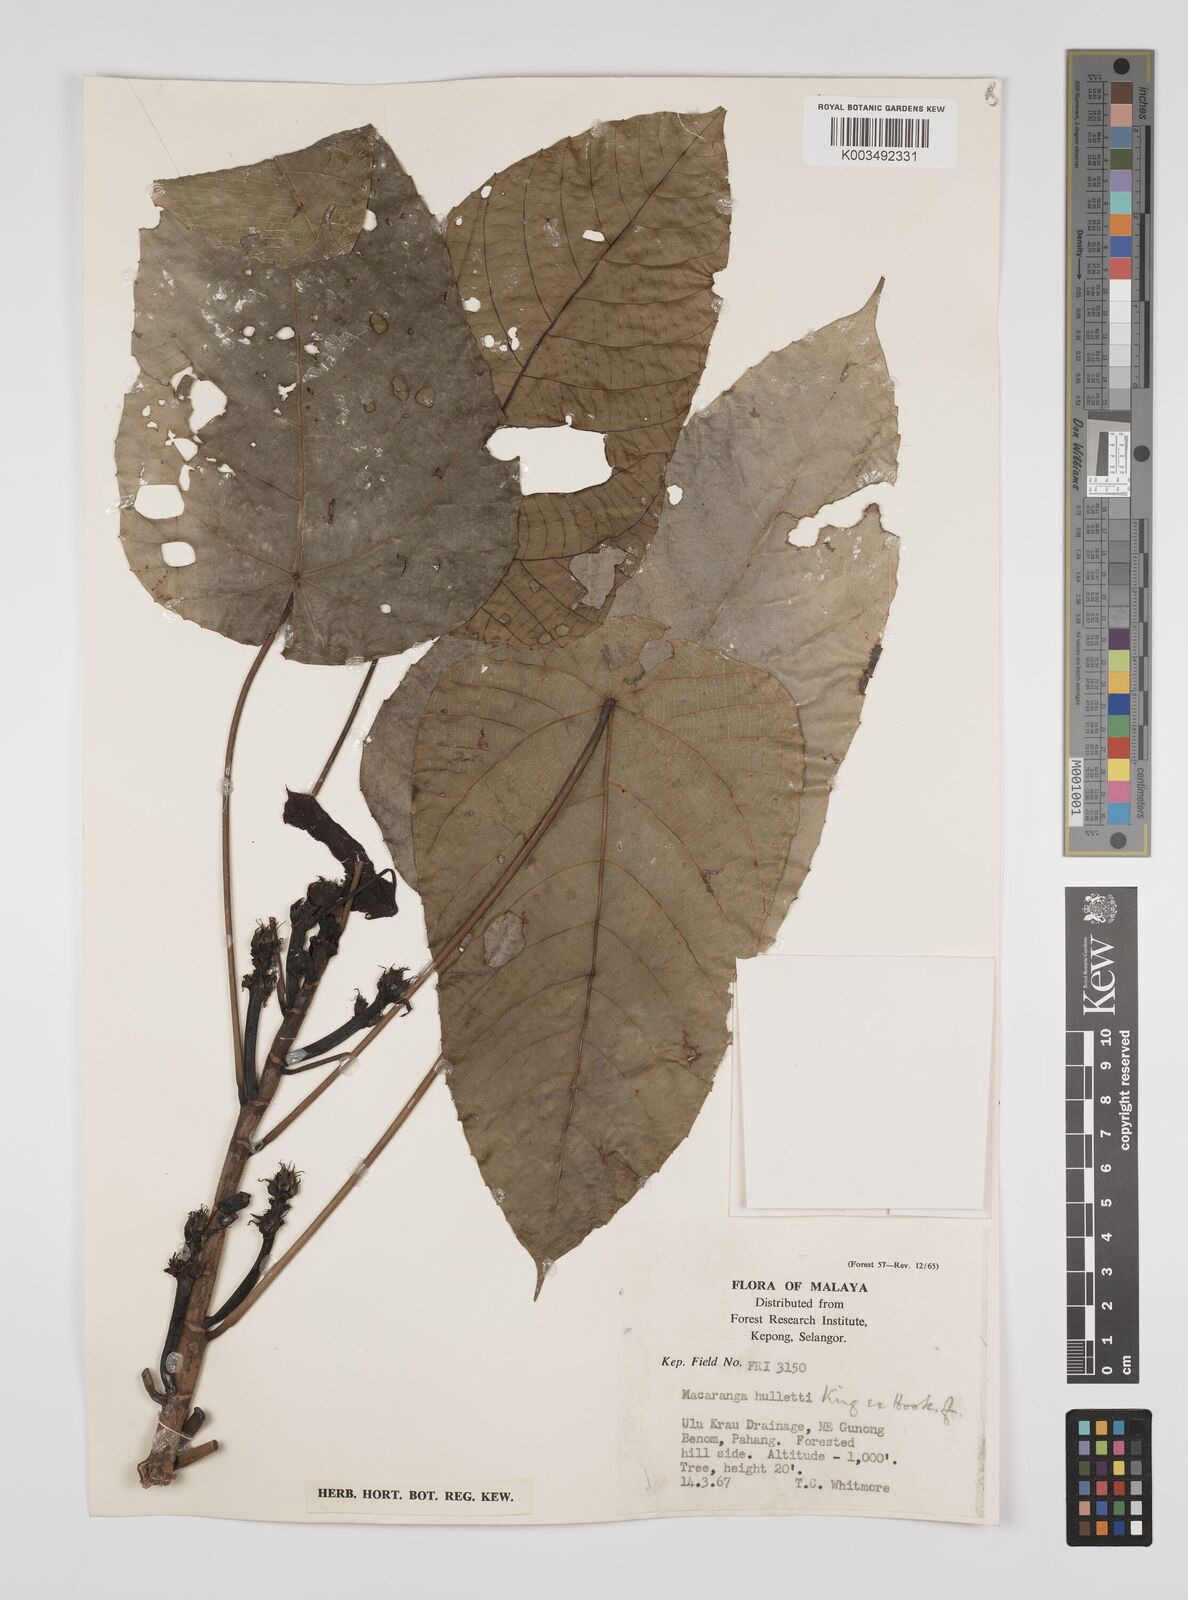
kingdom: Plantae
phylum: Tracheophyta
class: Magnoliopsida
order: Malpighiales
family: Euphorbiaceae
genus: Macaranga
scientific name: Macaranga hullettii
